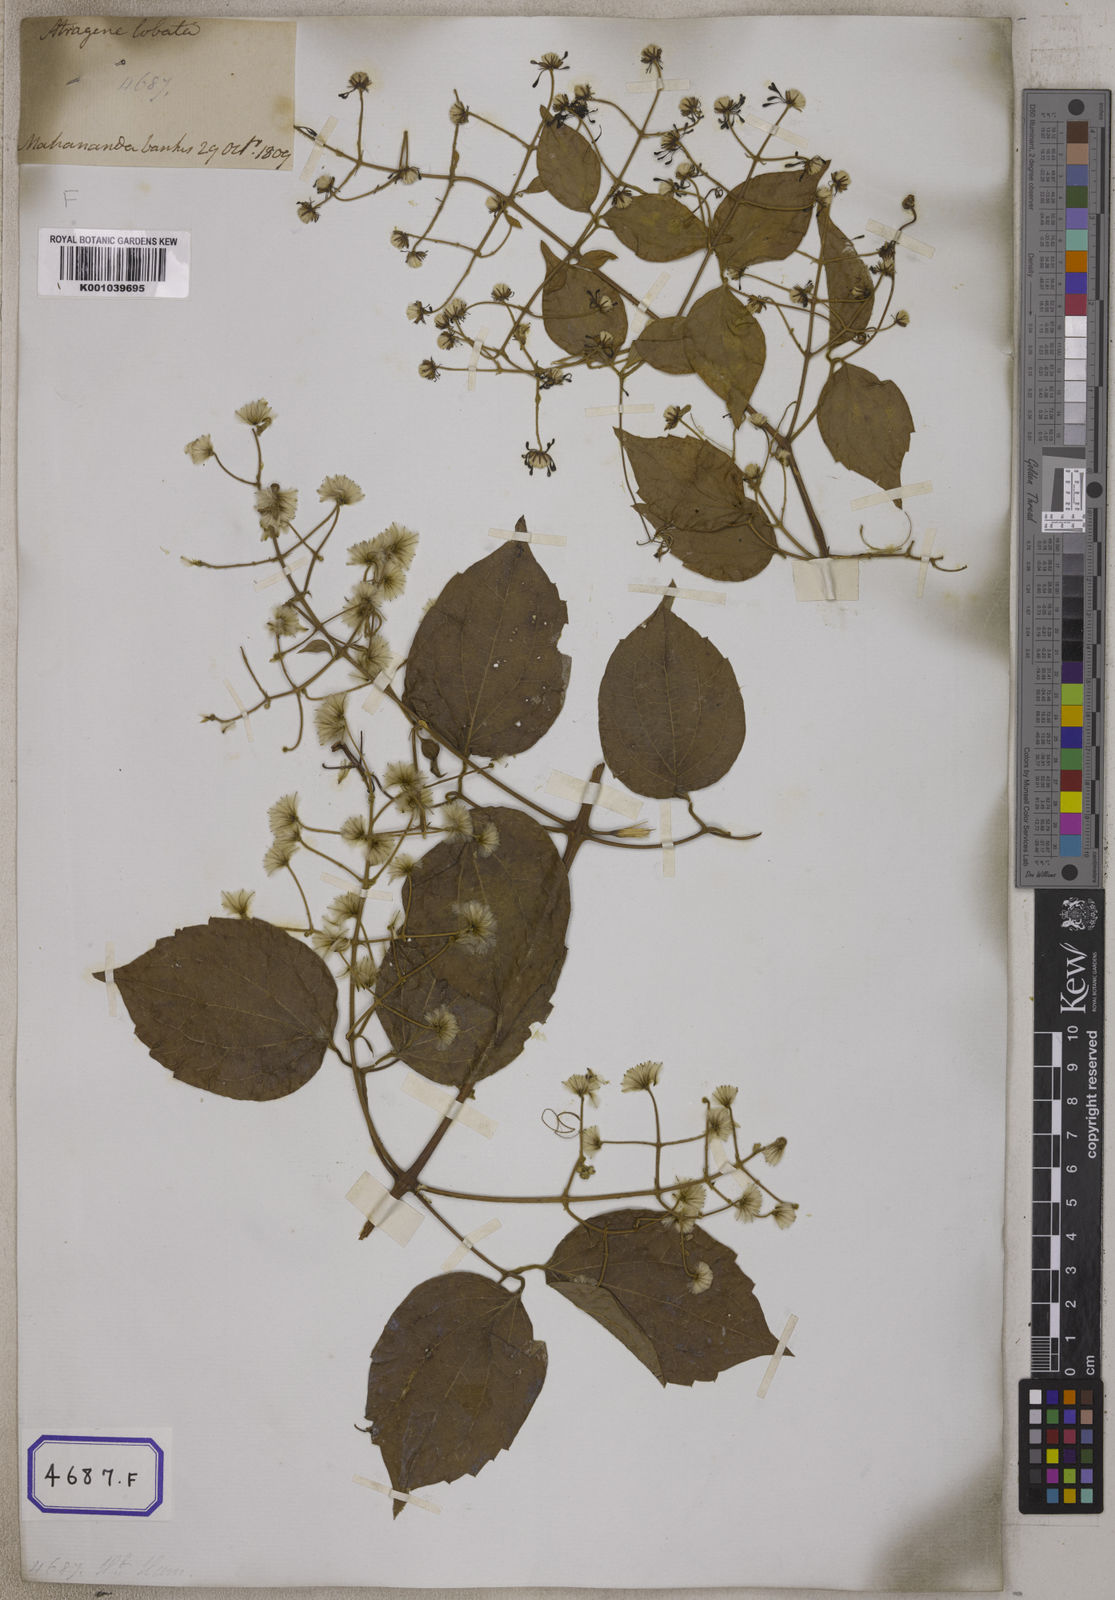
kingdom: Plantae
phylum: Tracheophyta
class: Magnoliopsida
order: Ranunculales
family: Ranunculaceae
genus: Clematis
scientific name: Clematis zeylanica
